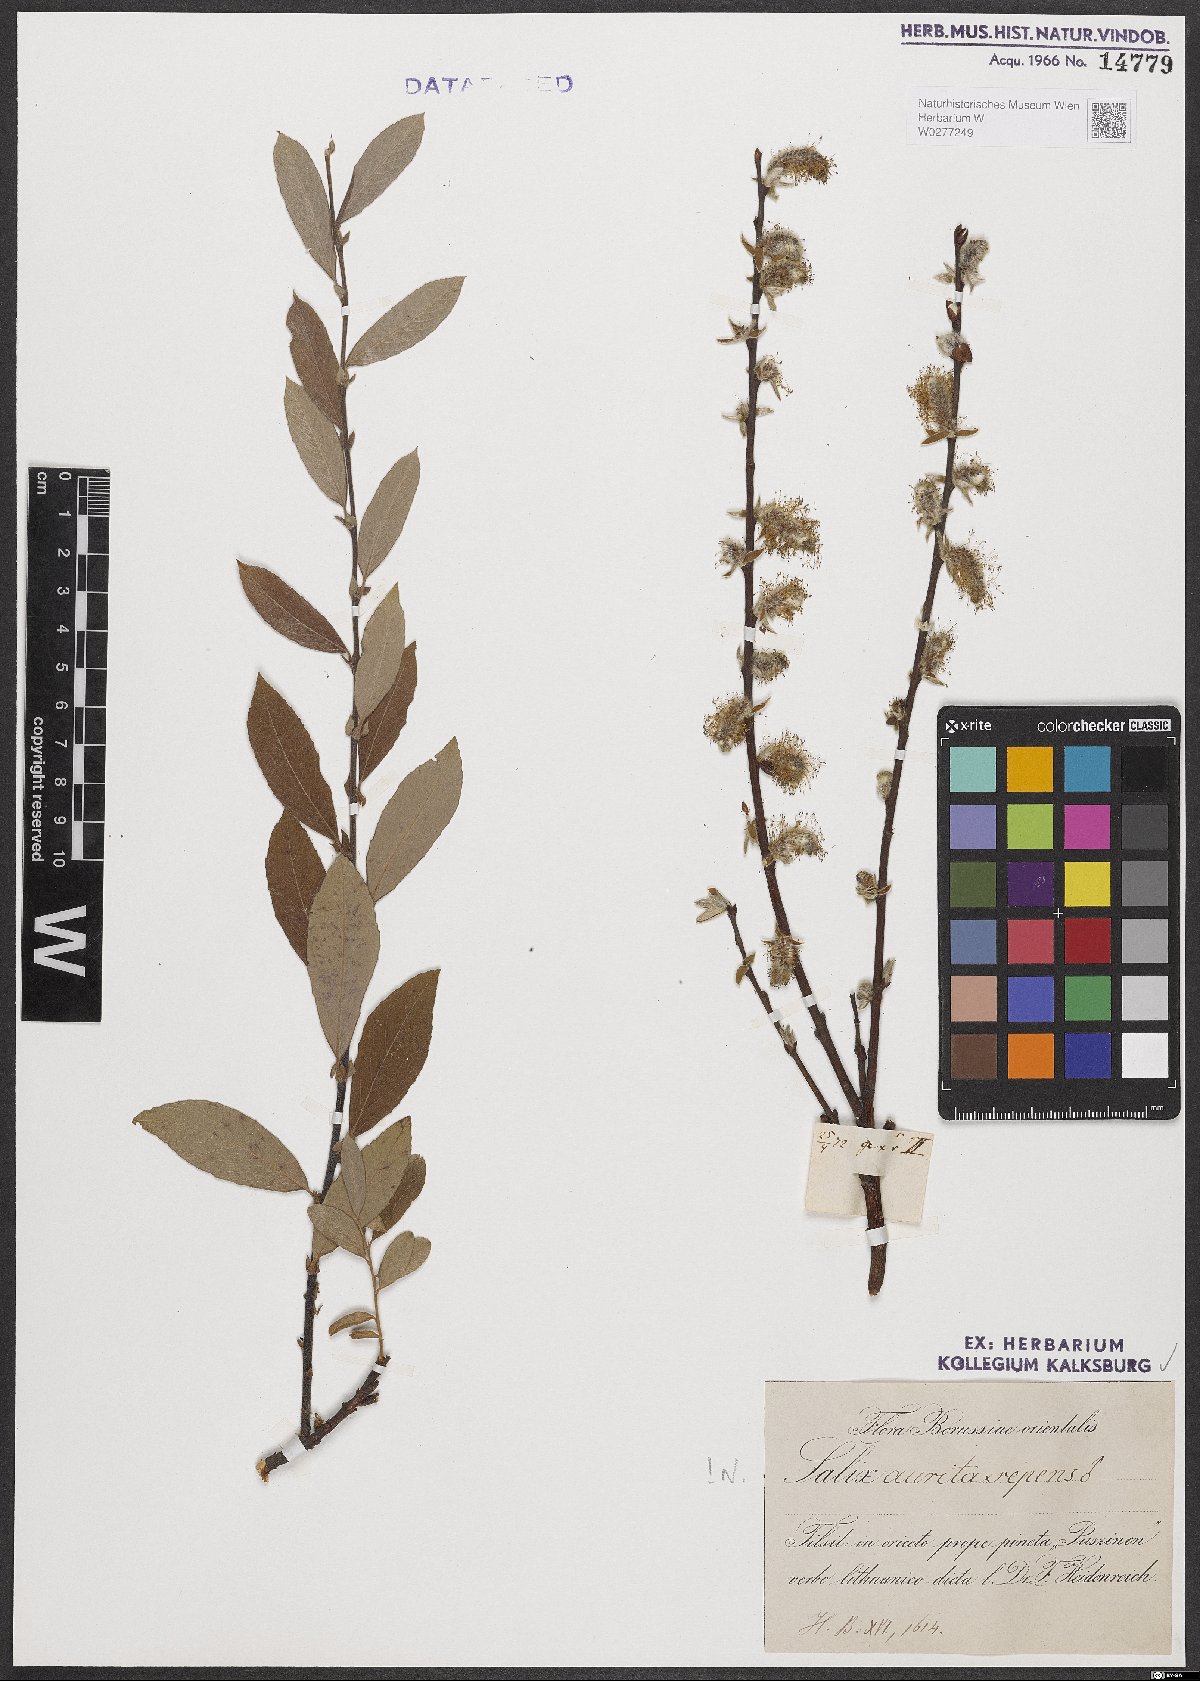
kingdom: Plantae
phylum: Tracheophyta
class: Magnoliopsida
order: Malpighiales
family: Salicaceae
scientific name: Salicaceae
